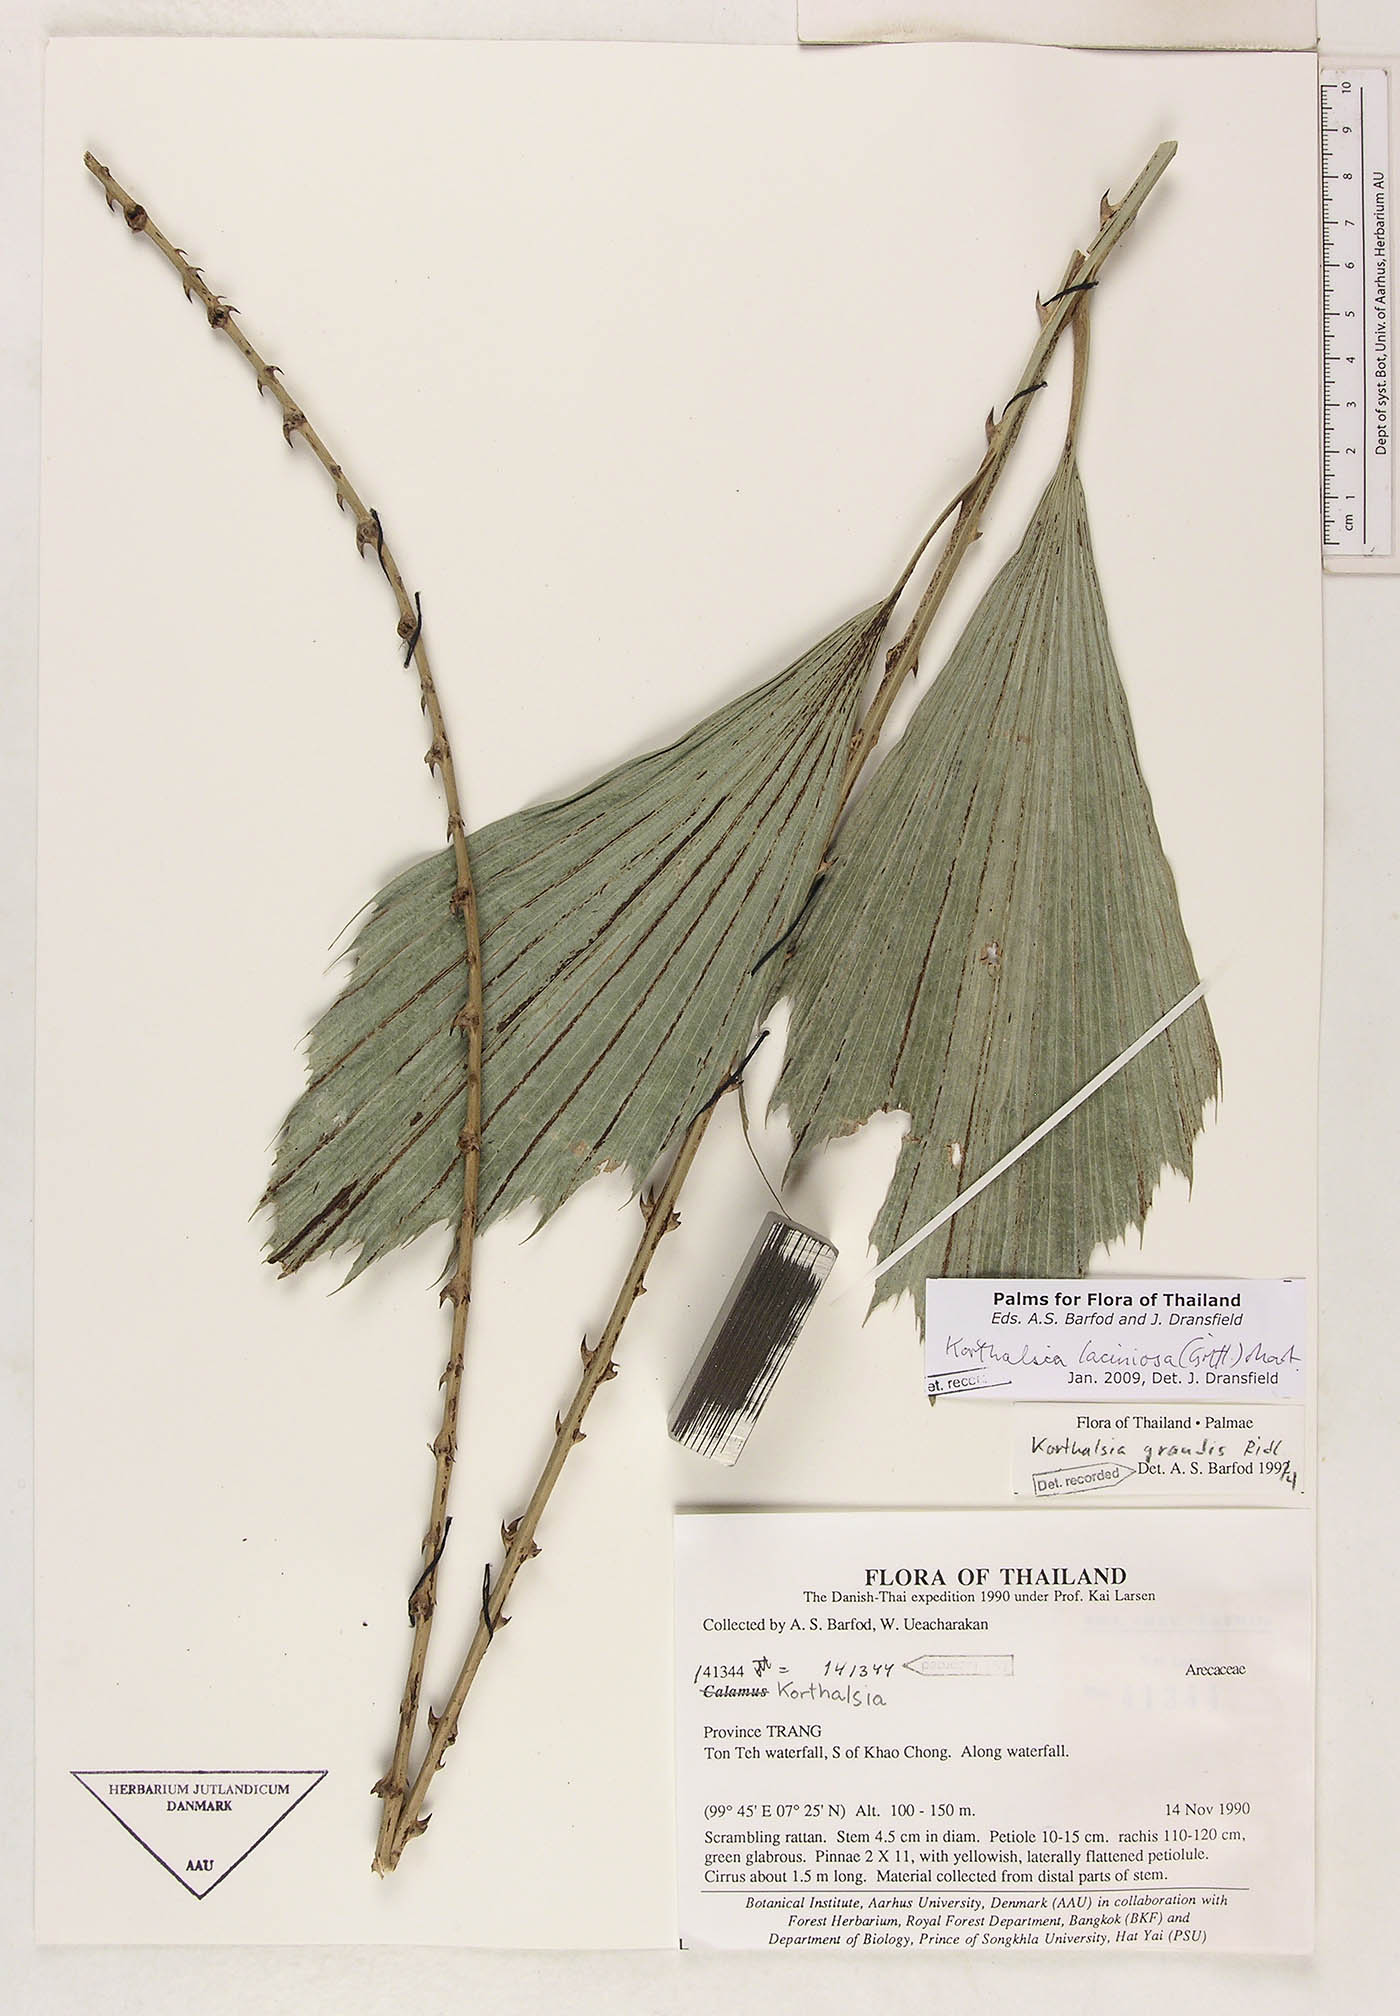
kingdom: Plantae
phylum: Tracheophyta
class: Liliopsida
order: Arecales
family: Arecaceae
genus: Korthalsia
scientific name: Korthalsia laciniosa
